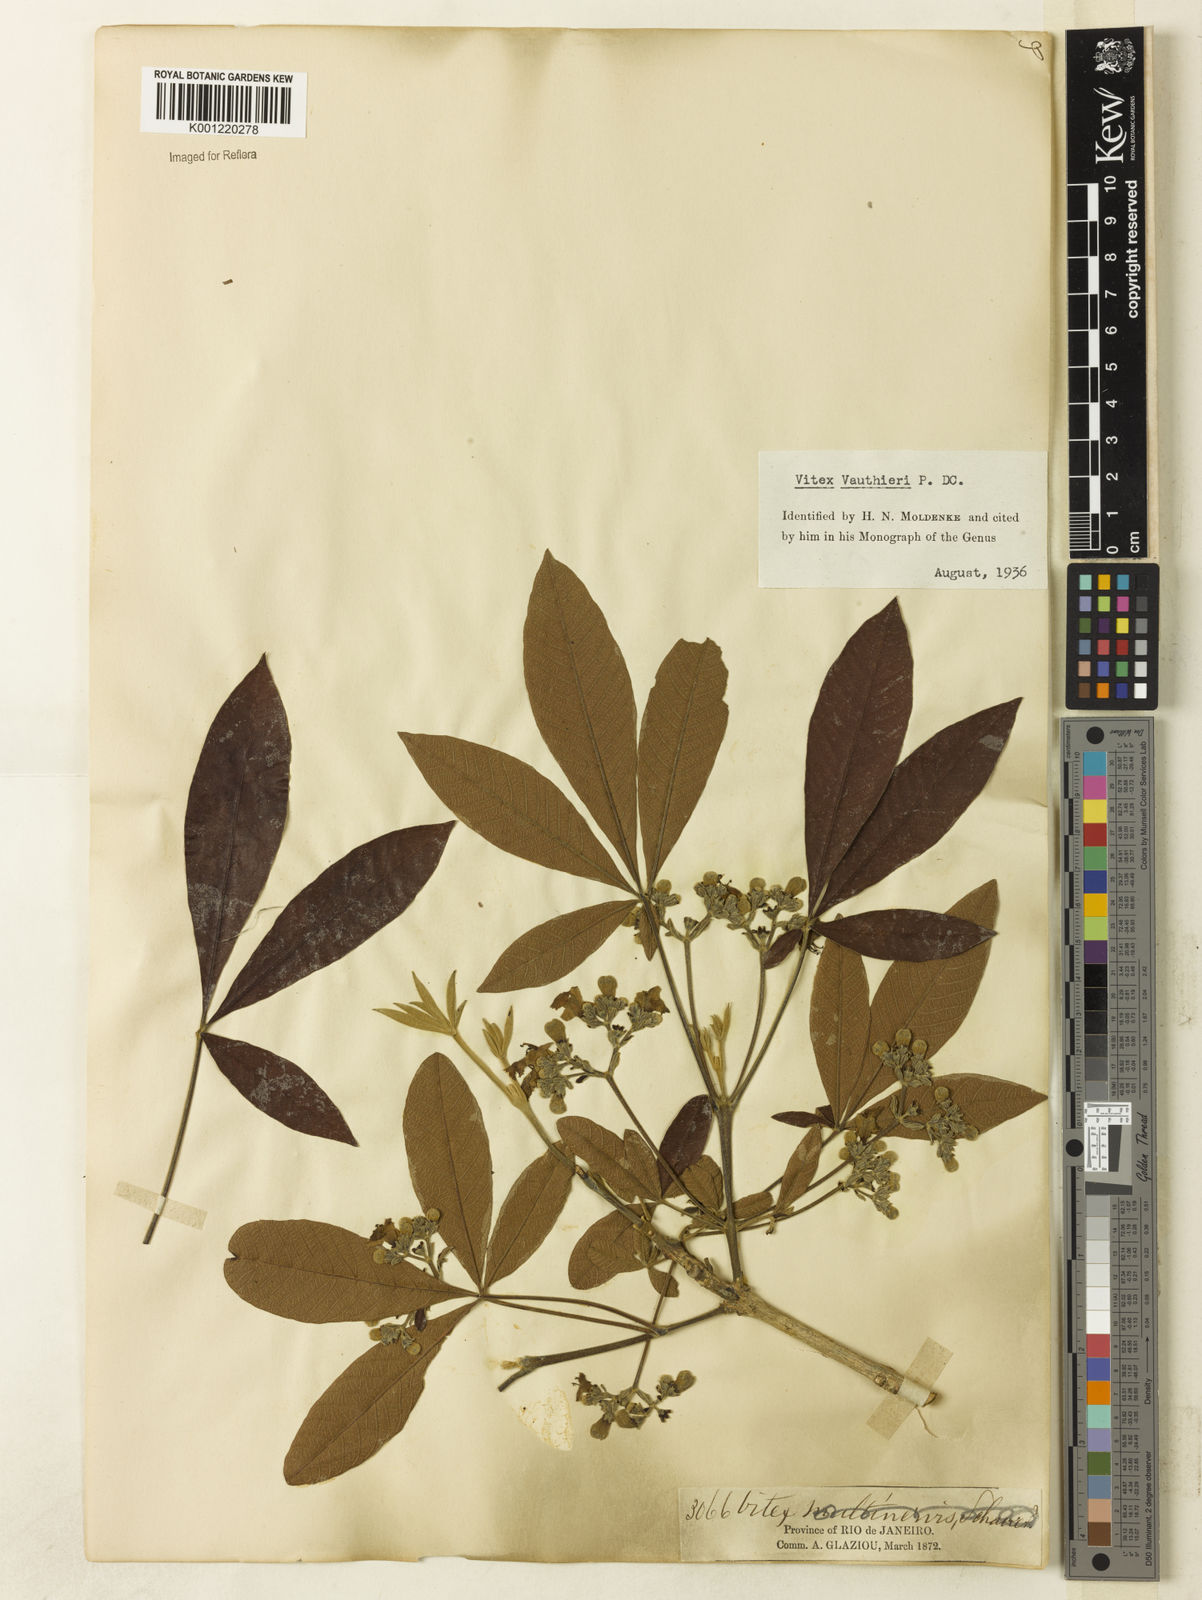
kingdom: Plantae
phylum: Tracheophyta
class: Magnoliopsida
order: Lamiales
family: Lamiaceae
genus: Vitex
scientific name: Vitex vauthieri
